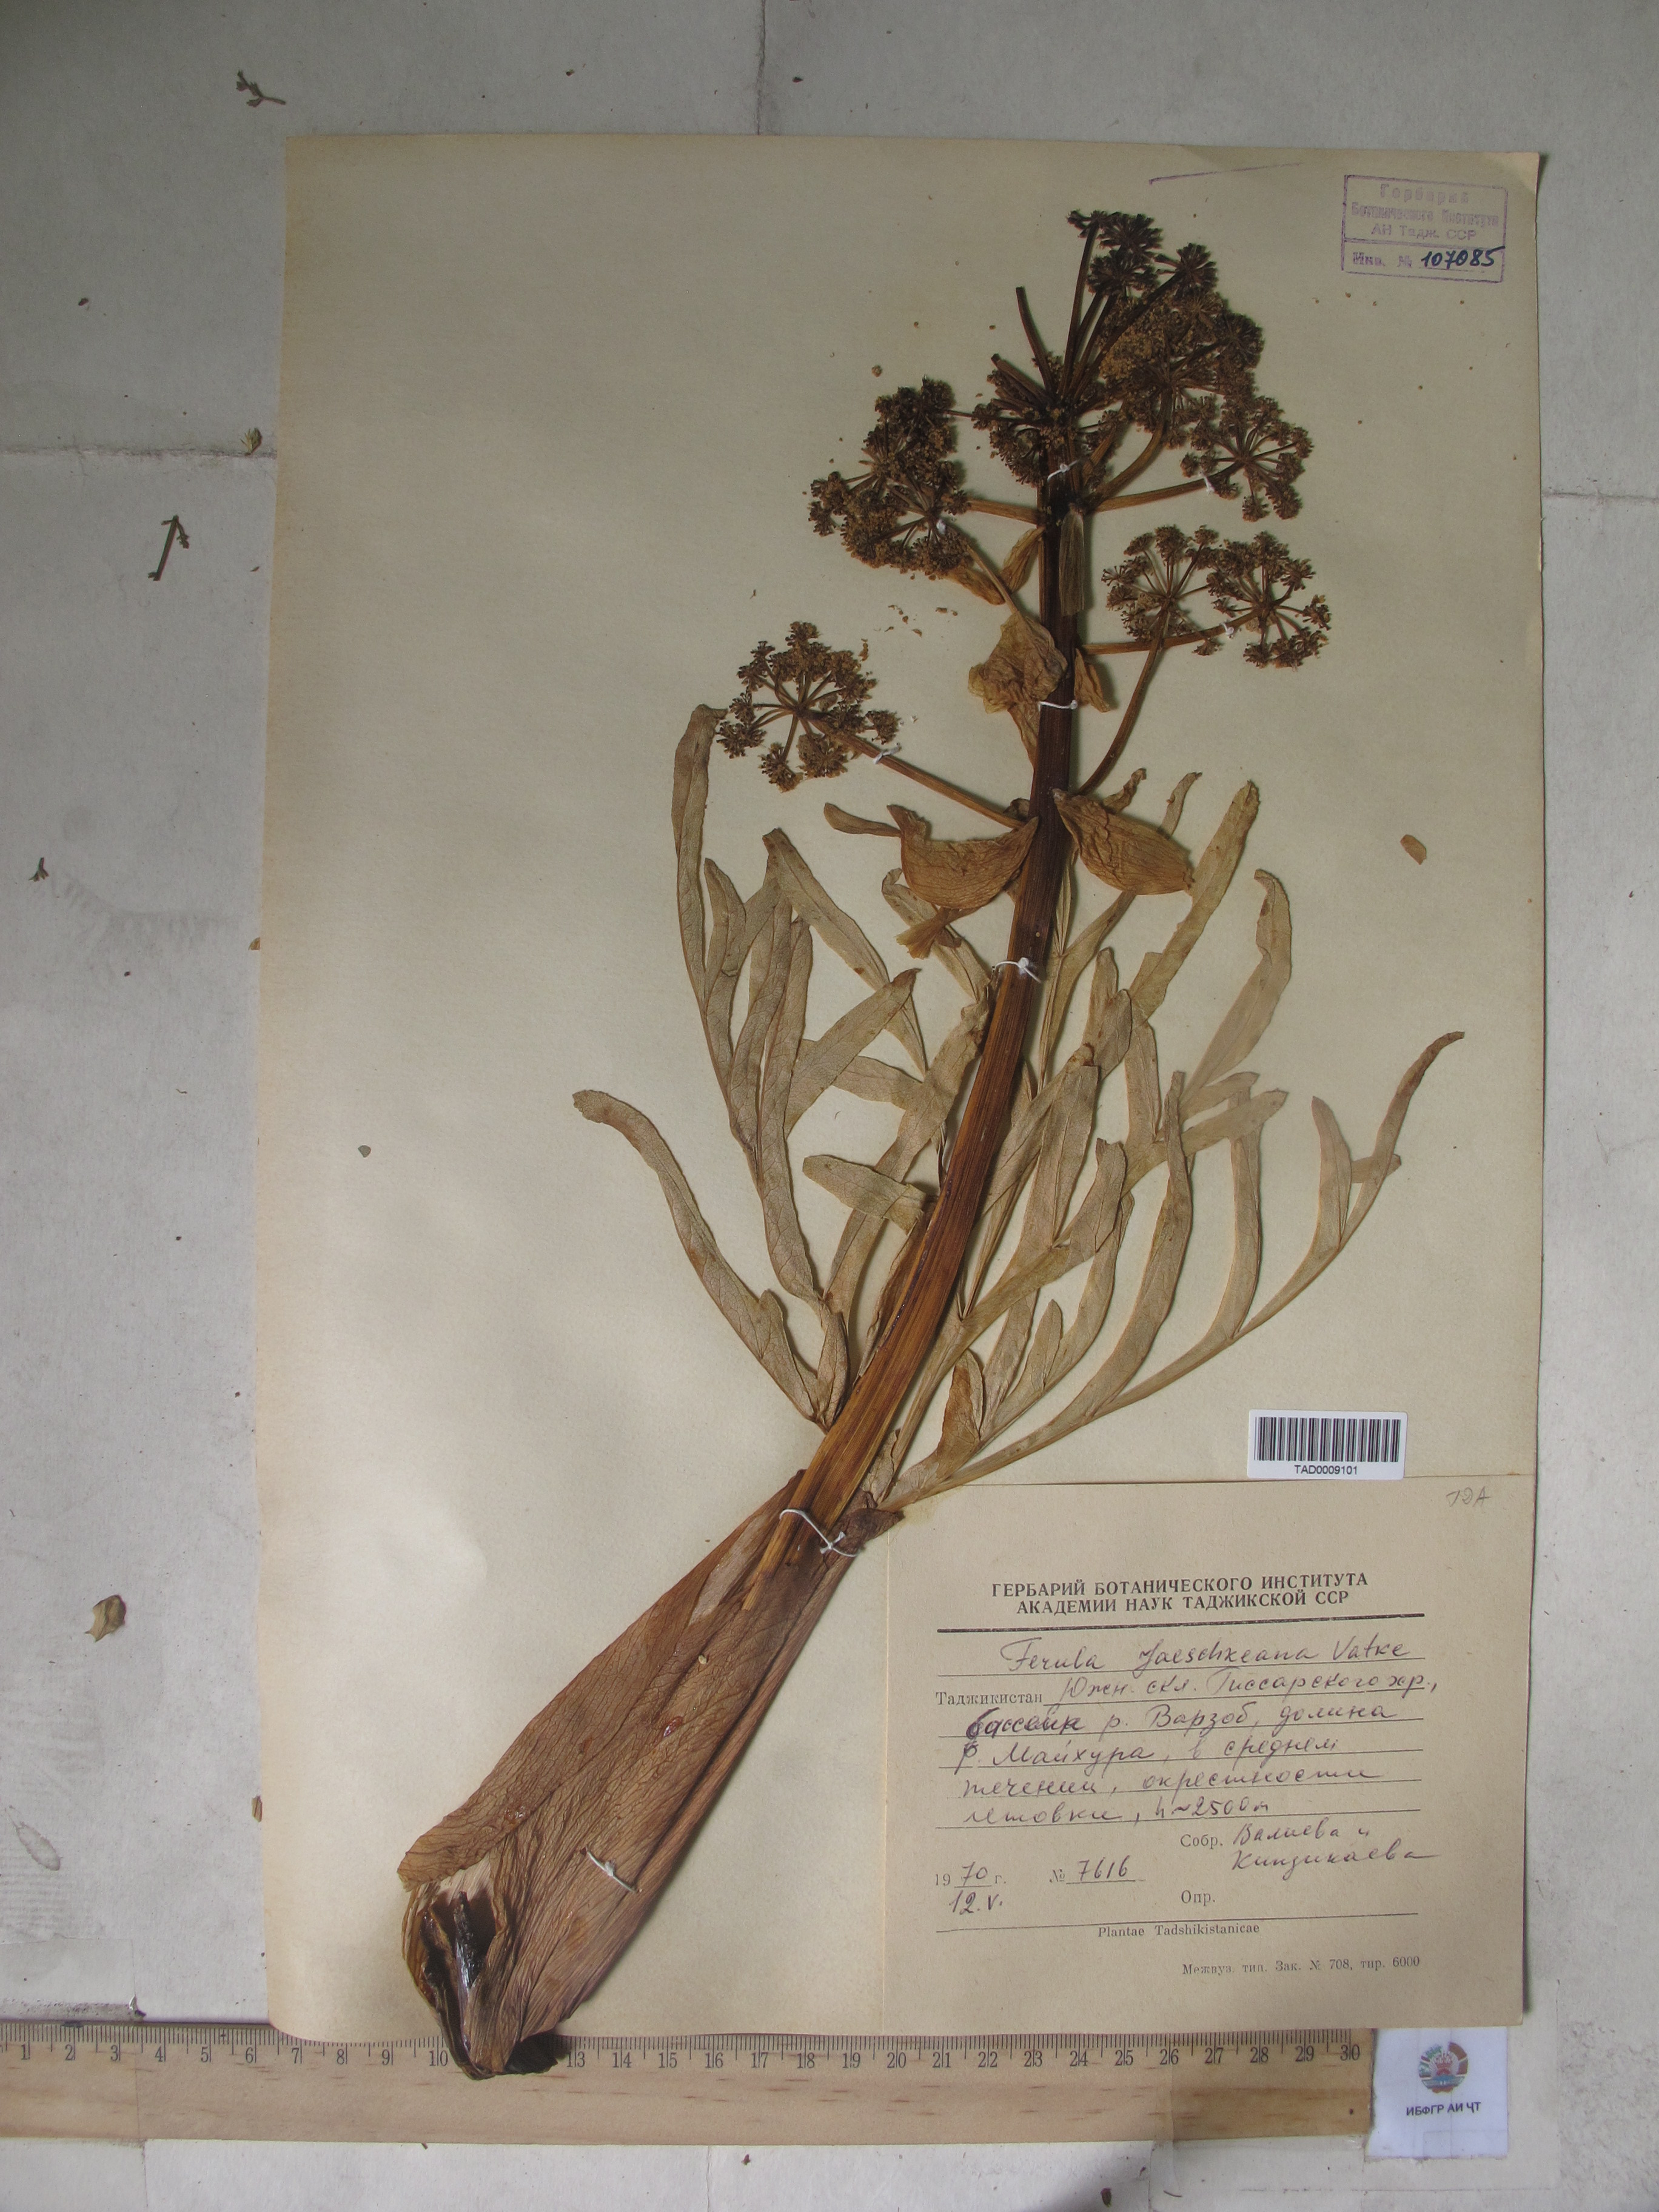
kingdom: Plantae
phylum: Tracheophyta
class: Magnoliopsida
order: Apiales
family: Apiaceae
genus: Ferula
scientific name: Ferula jaeschkeana
